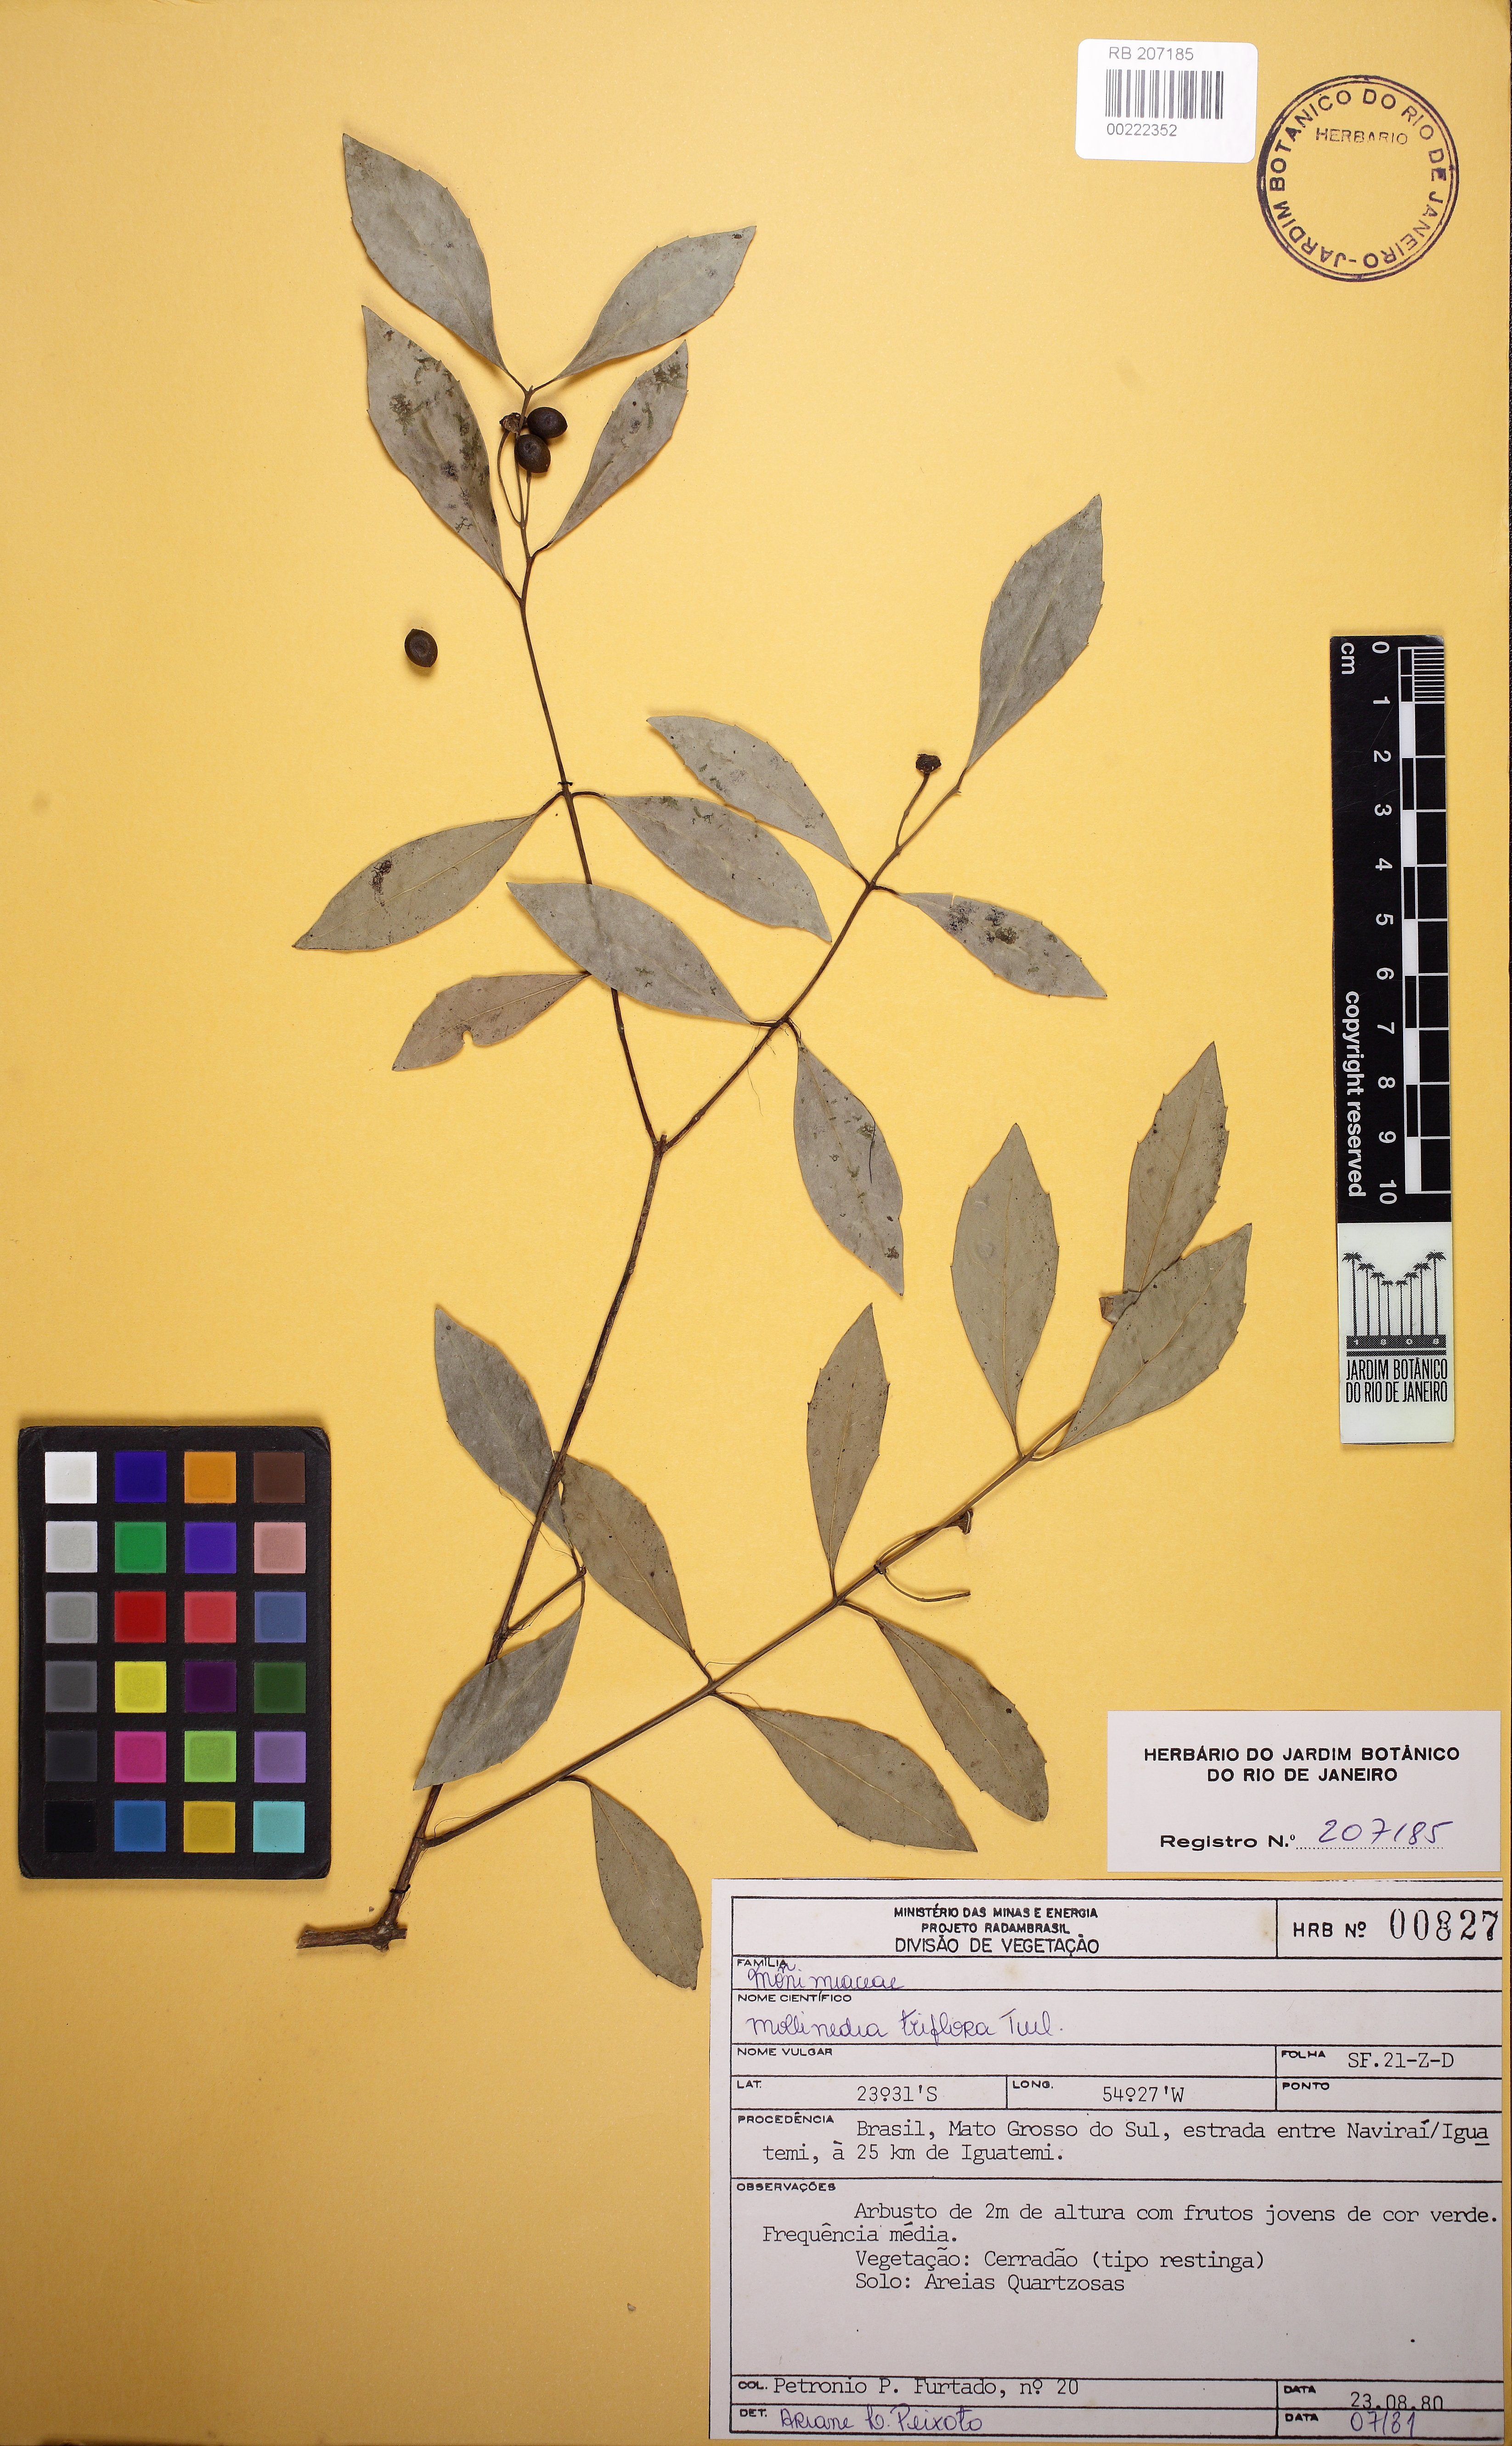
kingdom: Plantae
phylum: Tracheophyta
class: Magnoliopsida
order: Laurales
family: Monimiaceae
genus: Mollinedia
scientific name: Mollinedia clavigera
